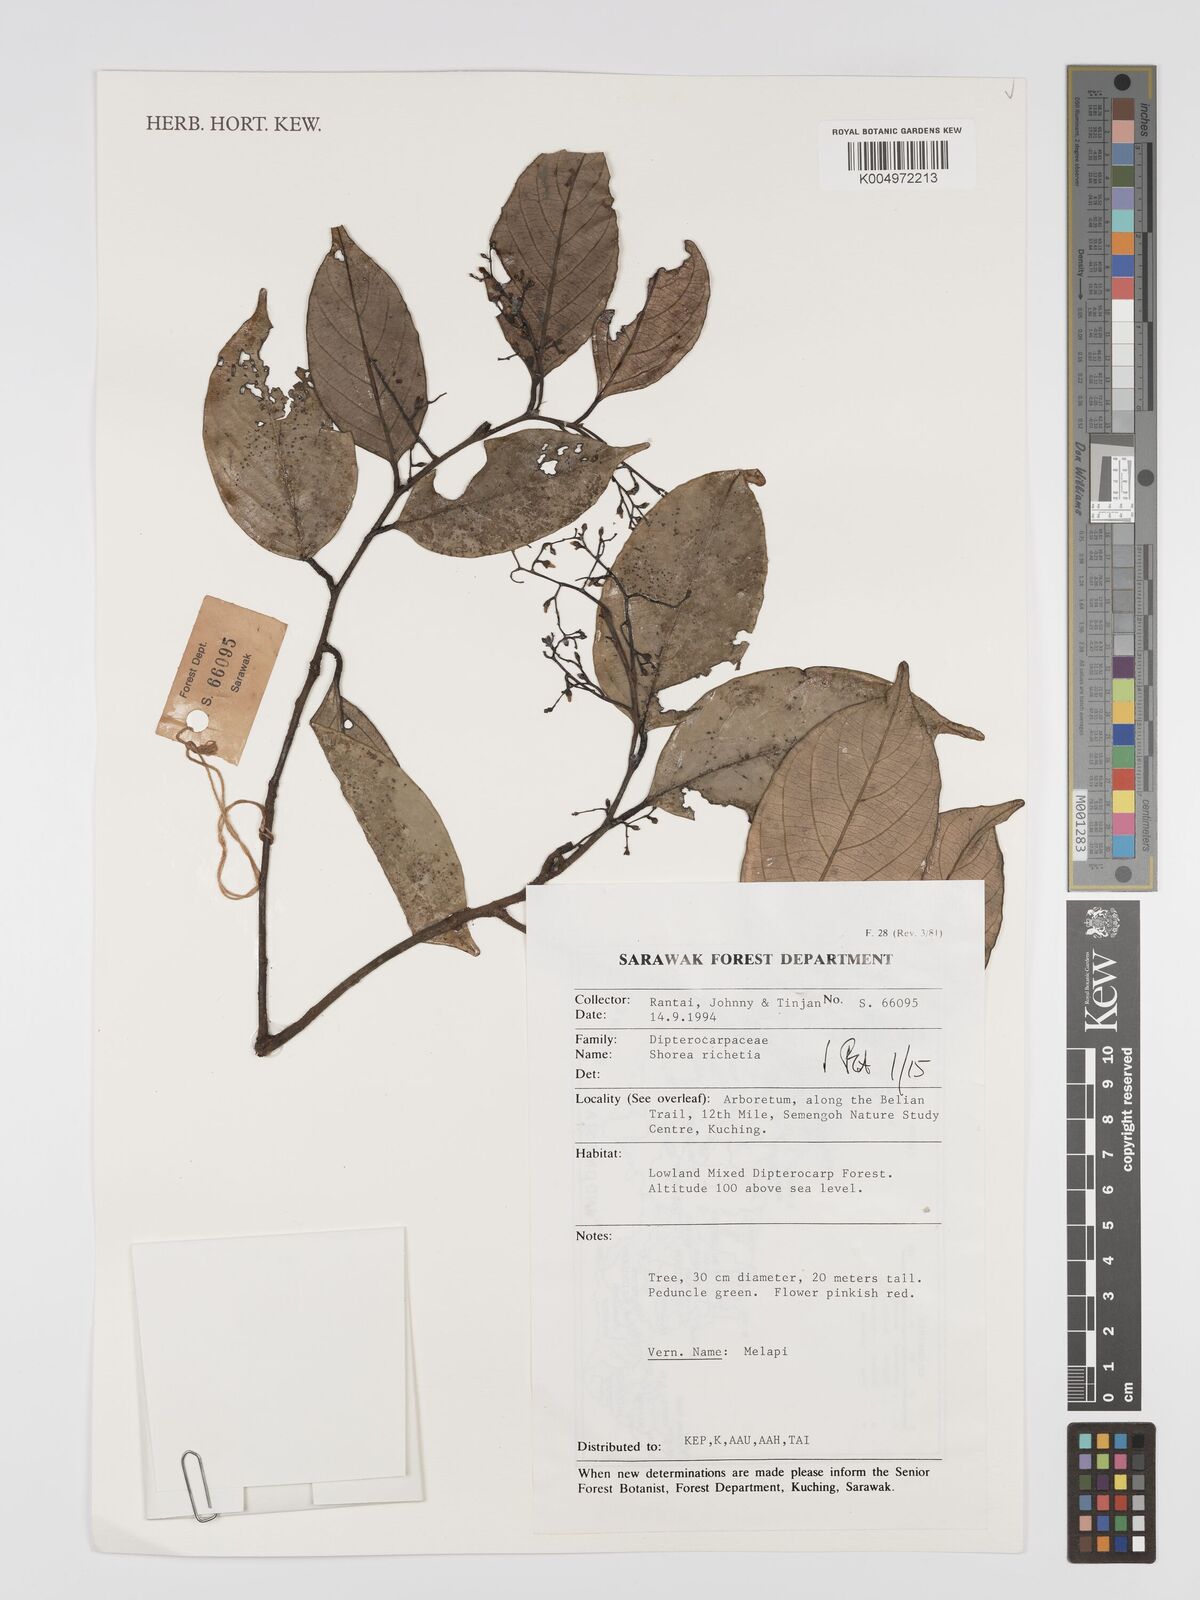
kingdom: Plantae
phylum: Tracheophyta
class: Magnoliopsida
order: Malvales
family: Dipterocarpaceae
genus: Shorea
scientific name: Shorea richetia
